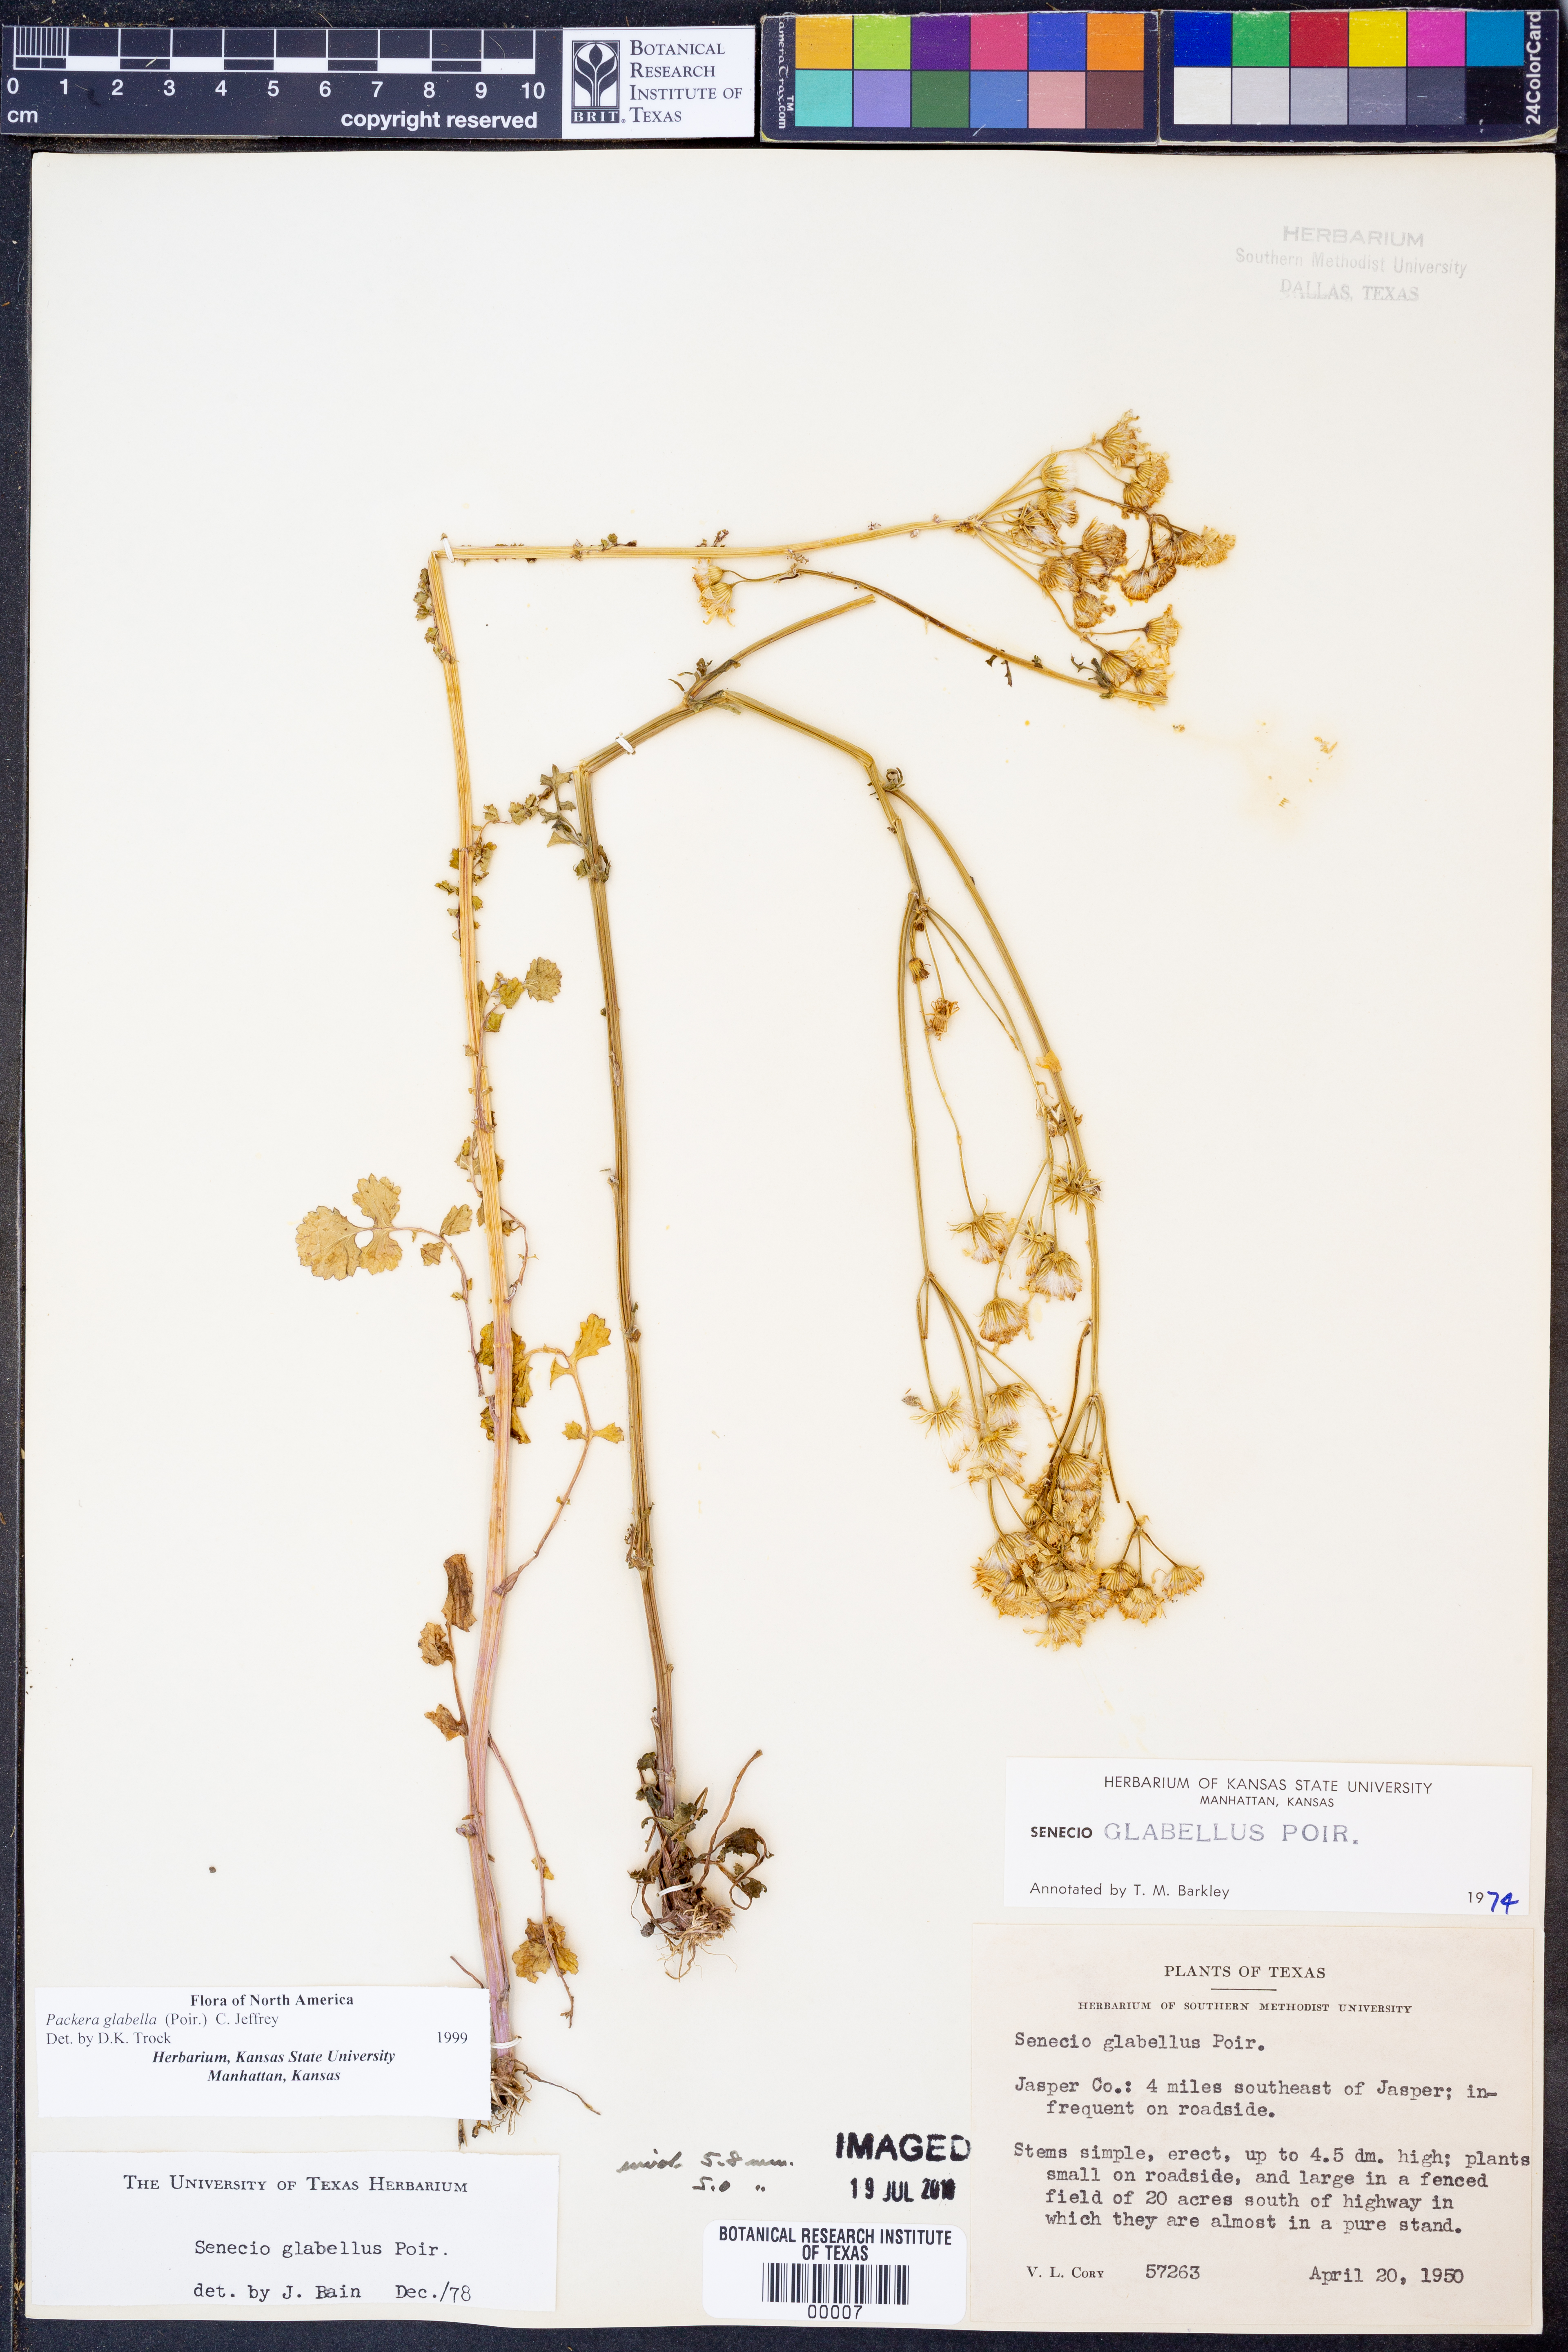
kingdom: Plantae
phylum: Tracheophyta
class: Magnoliopsida
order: Asterales
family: Asteraceae
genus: Packera
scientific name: Packera glabella
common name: Butterweed
